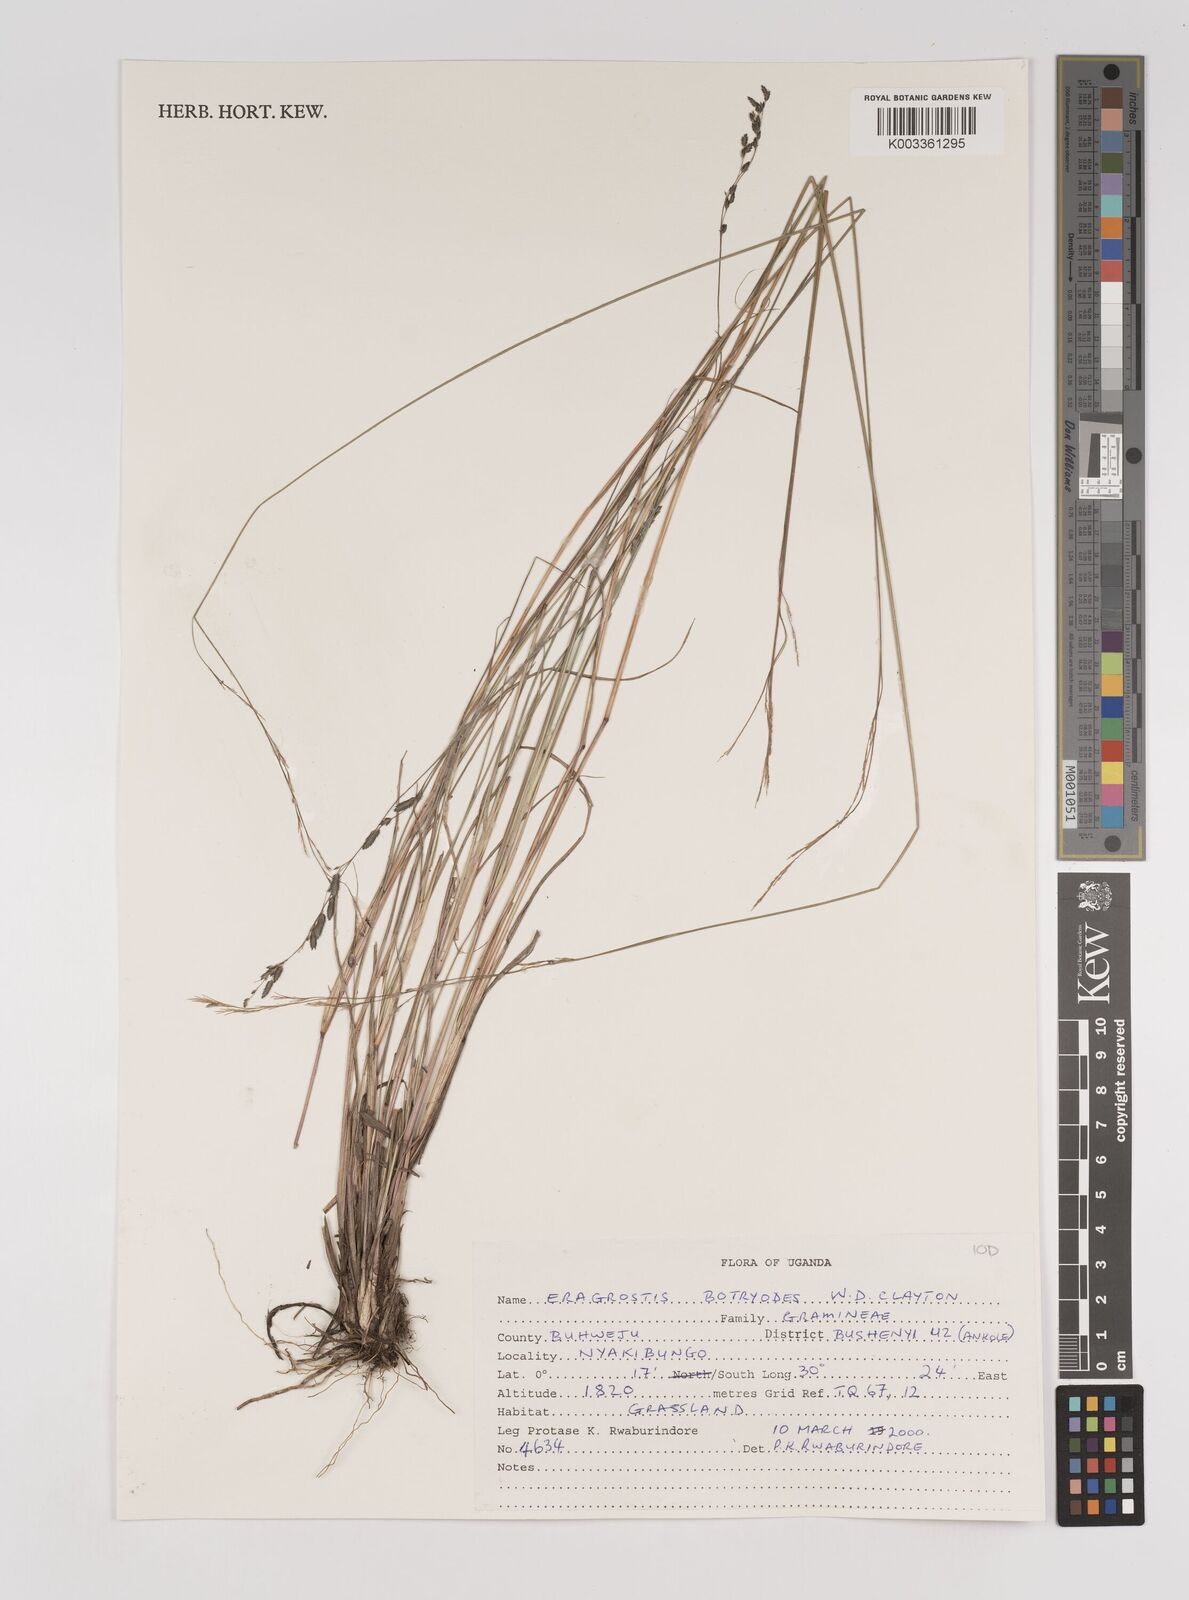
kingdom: Plantae
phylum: Tracheophyta
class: Liliopsida
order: Poales
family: Poaceae
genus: Eragrostis
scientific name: Eragrostis botryodes
